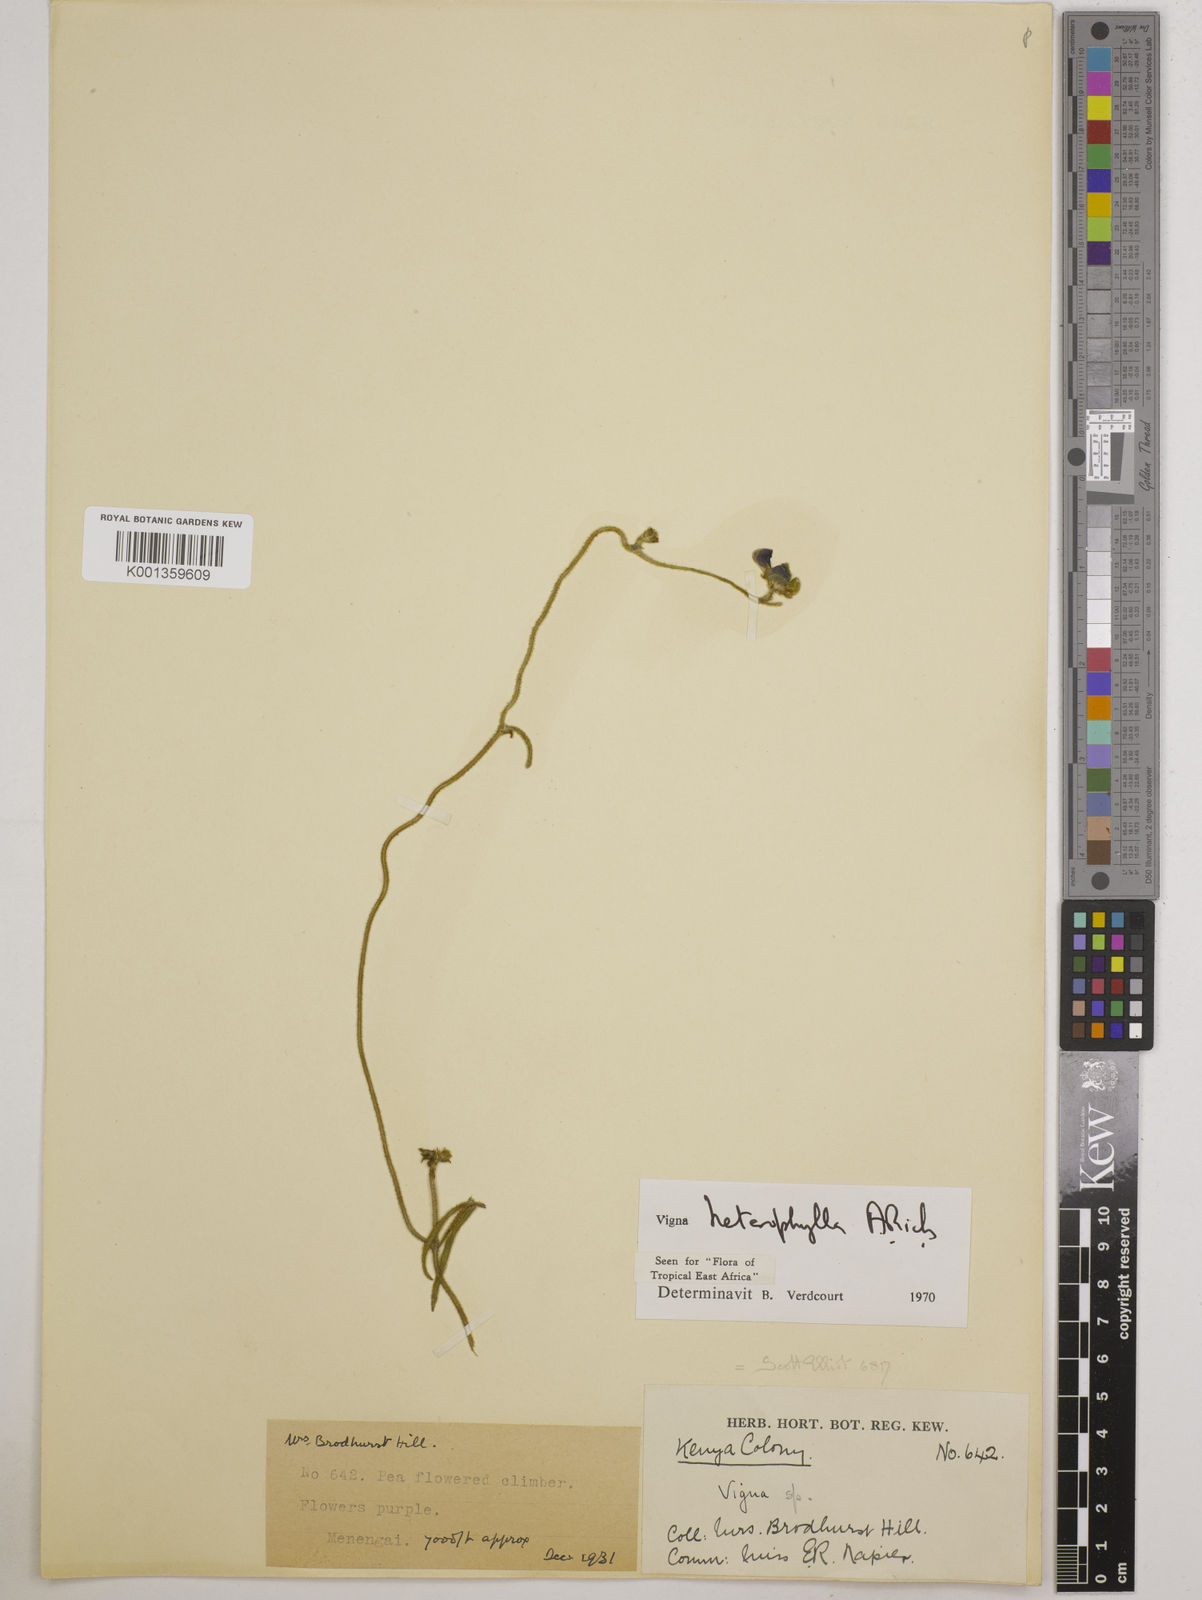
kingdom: Plantae
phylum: Tracheophyta
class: Magnoliopsida
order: Fabales
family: Fabaceae
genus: Vigna
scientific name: Vigna heterophylla
